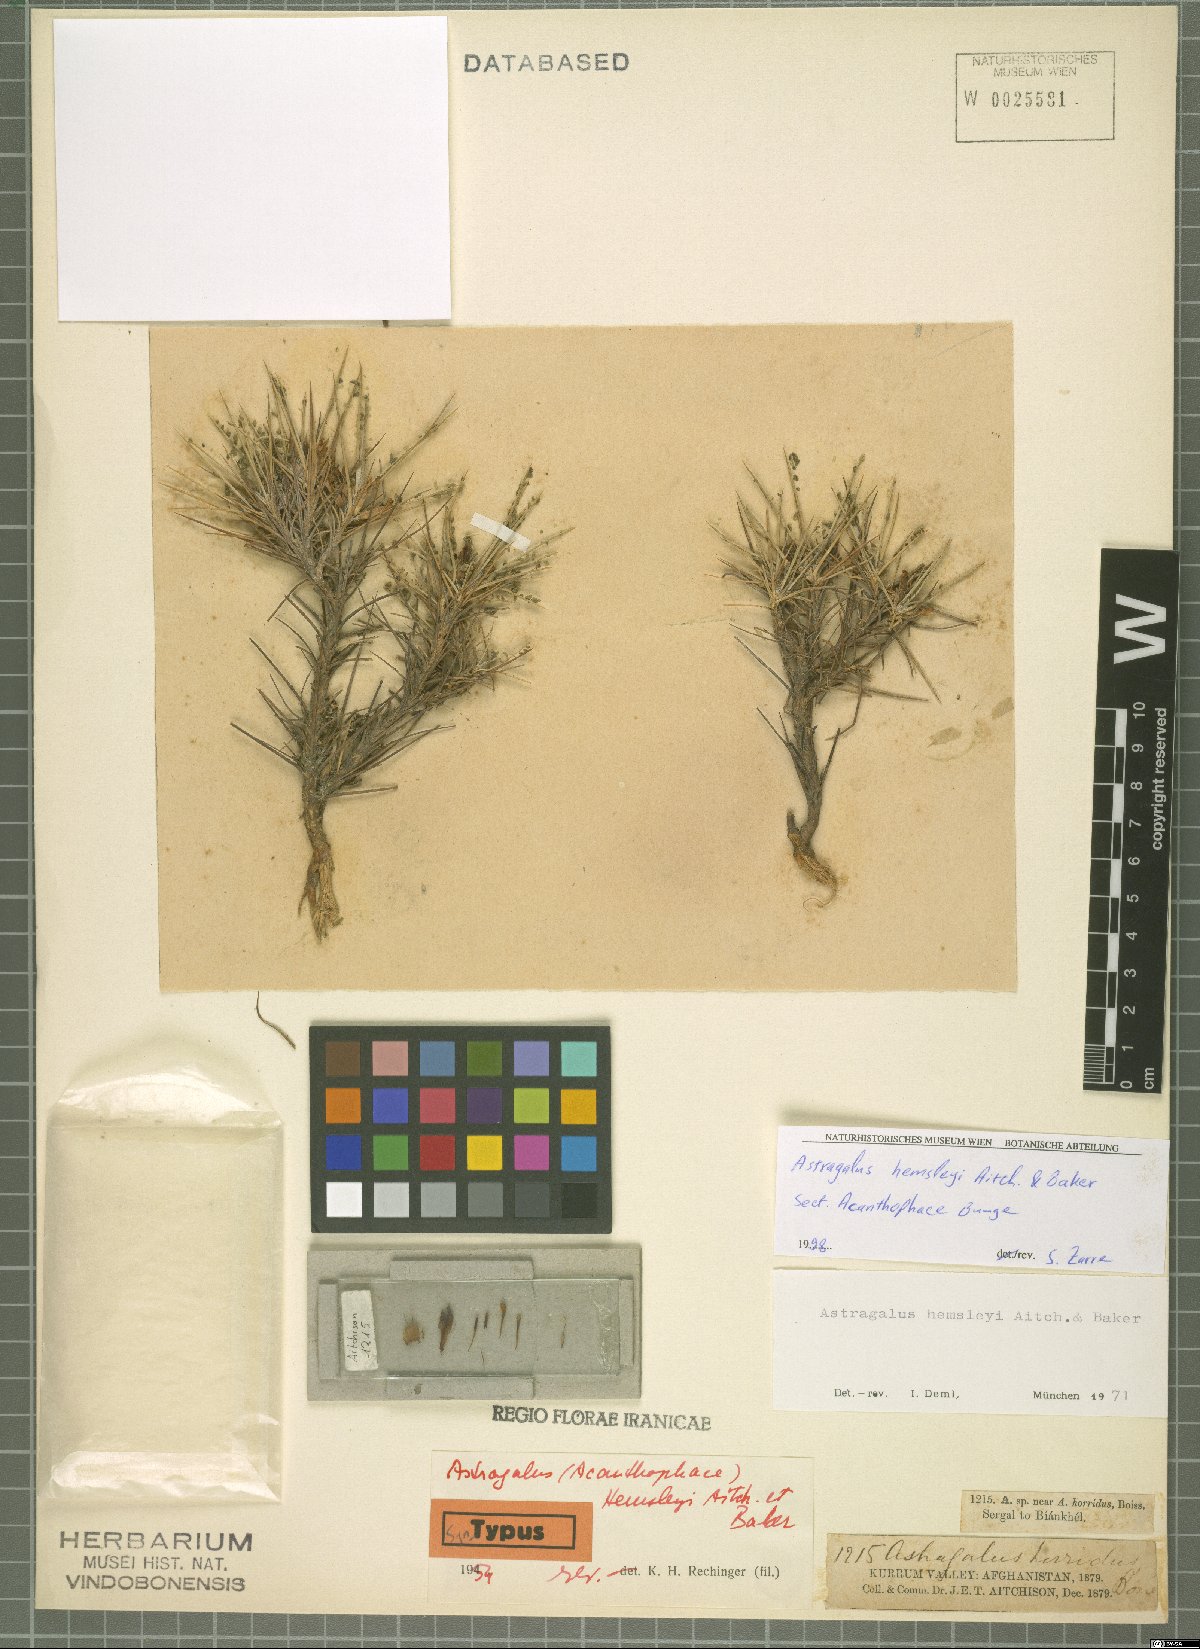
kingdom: Plantae
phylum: Tracheophyta
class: Magnoliopsida
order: Fabales
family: Fabaceae
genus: Astragalus
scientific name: Astragalus hemsleyi
